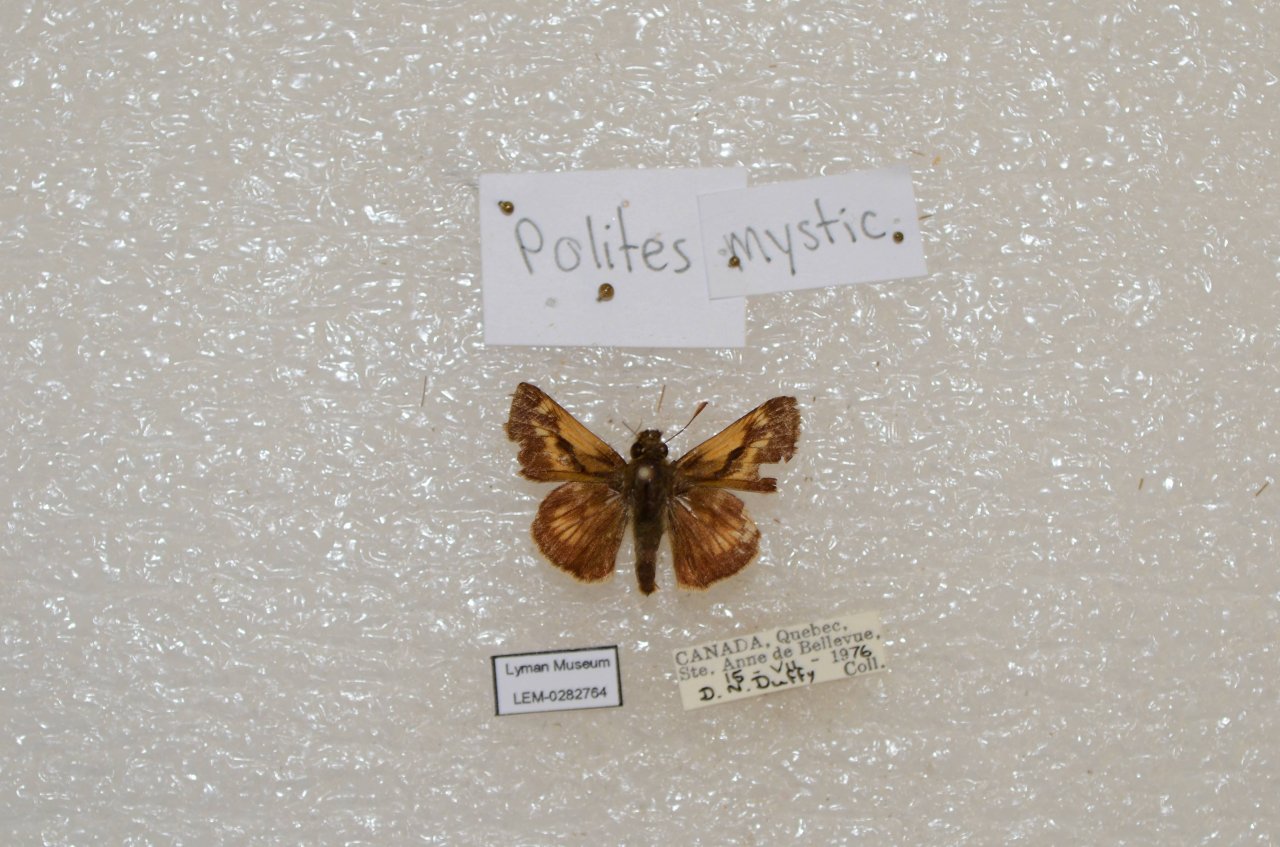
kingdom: Animalia
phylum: Arthropoda
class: Insecta
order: Lepidoptera
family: Hesperiidae
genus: Polites
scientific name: Polites
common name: Long Dash Skipper
